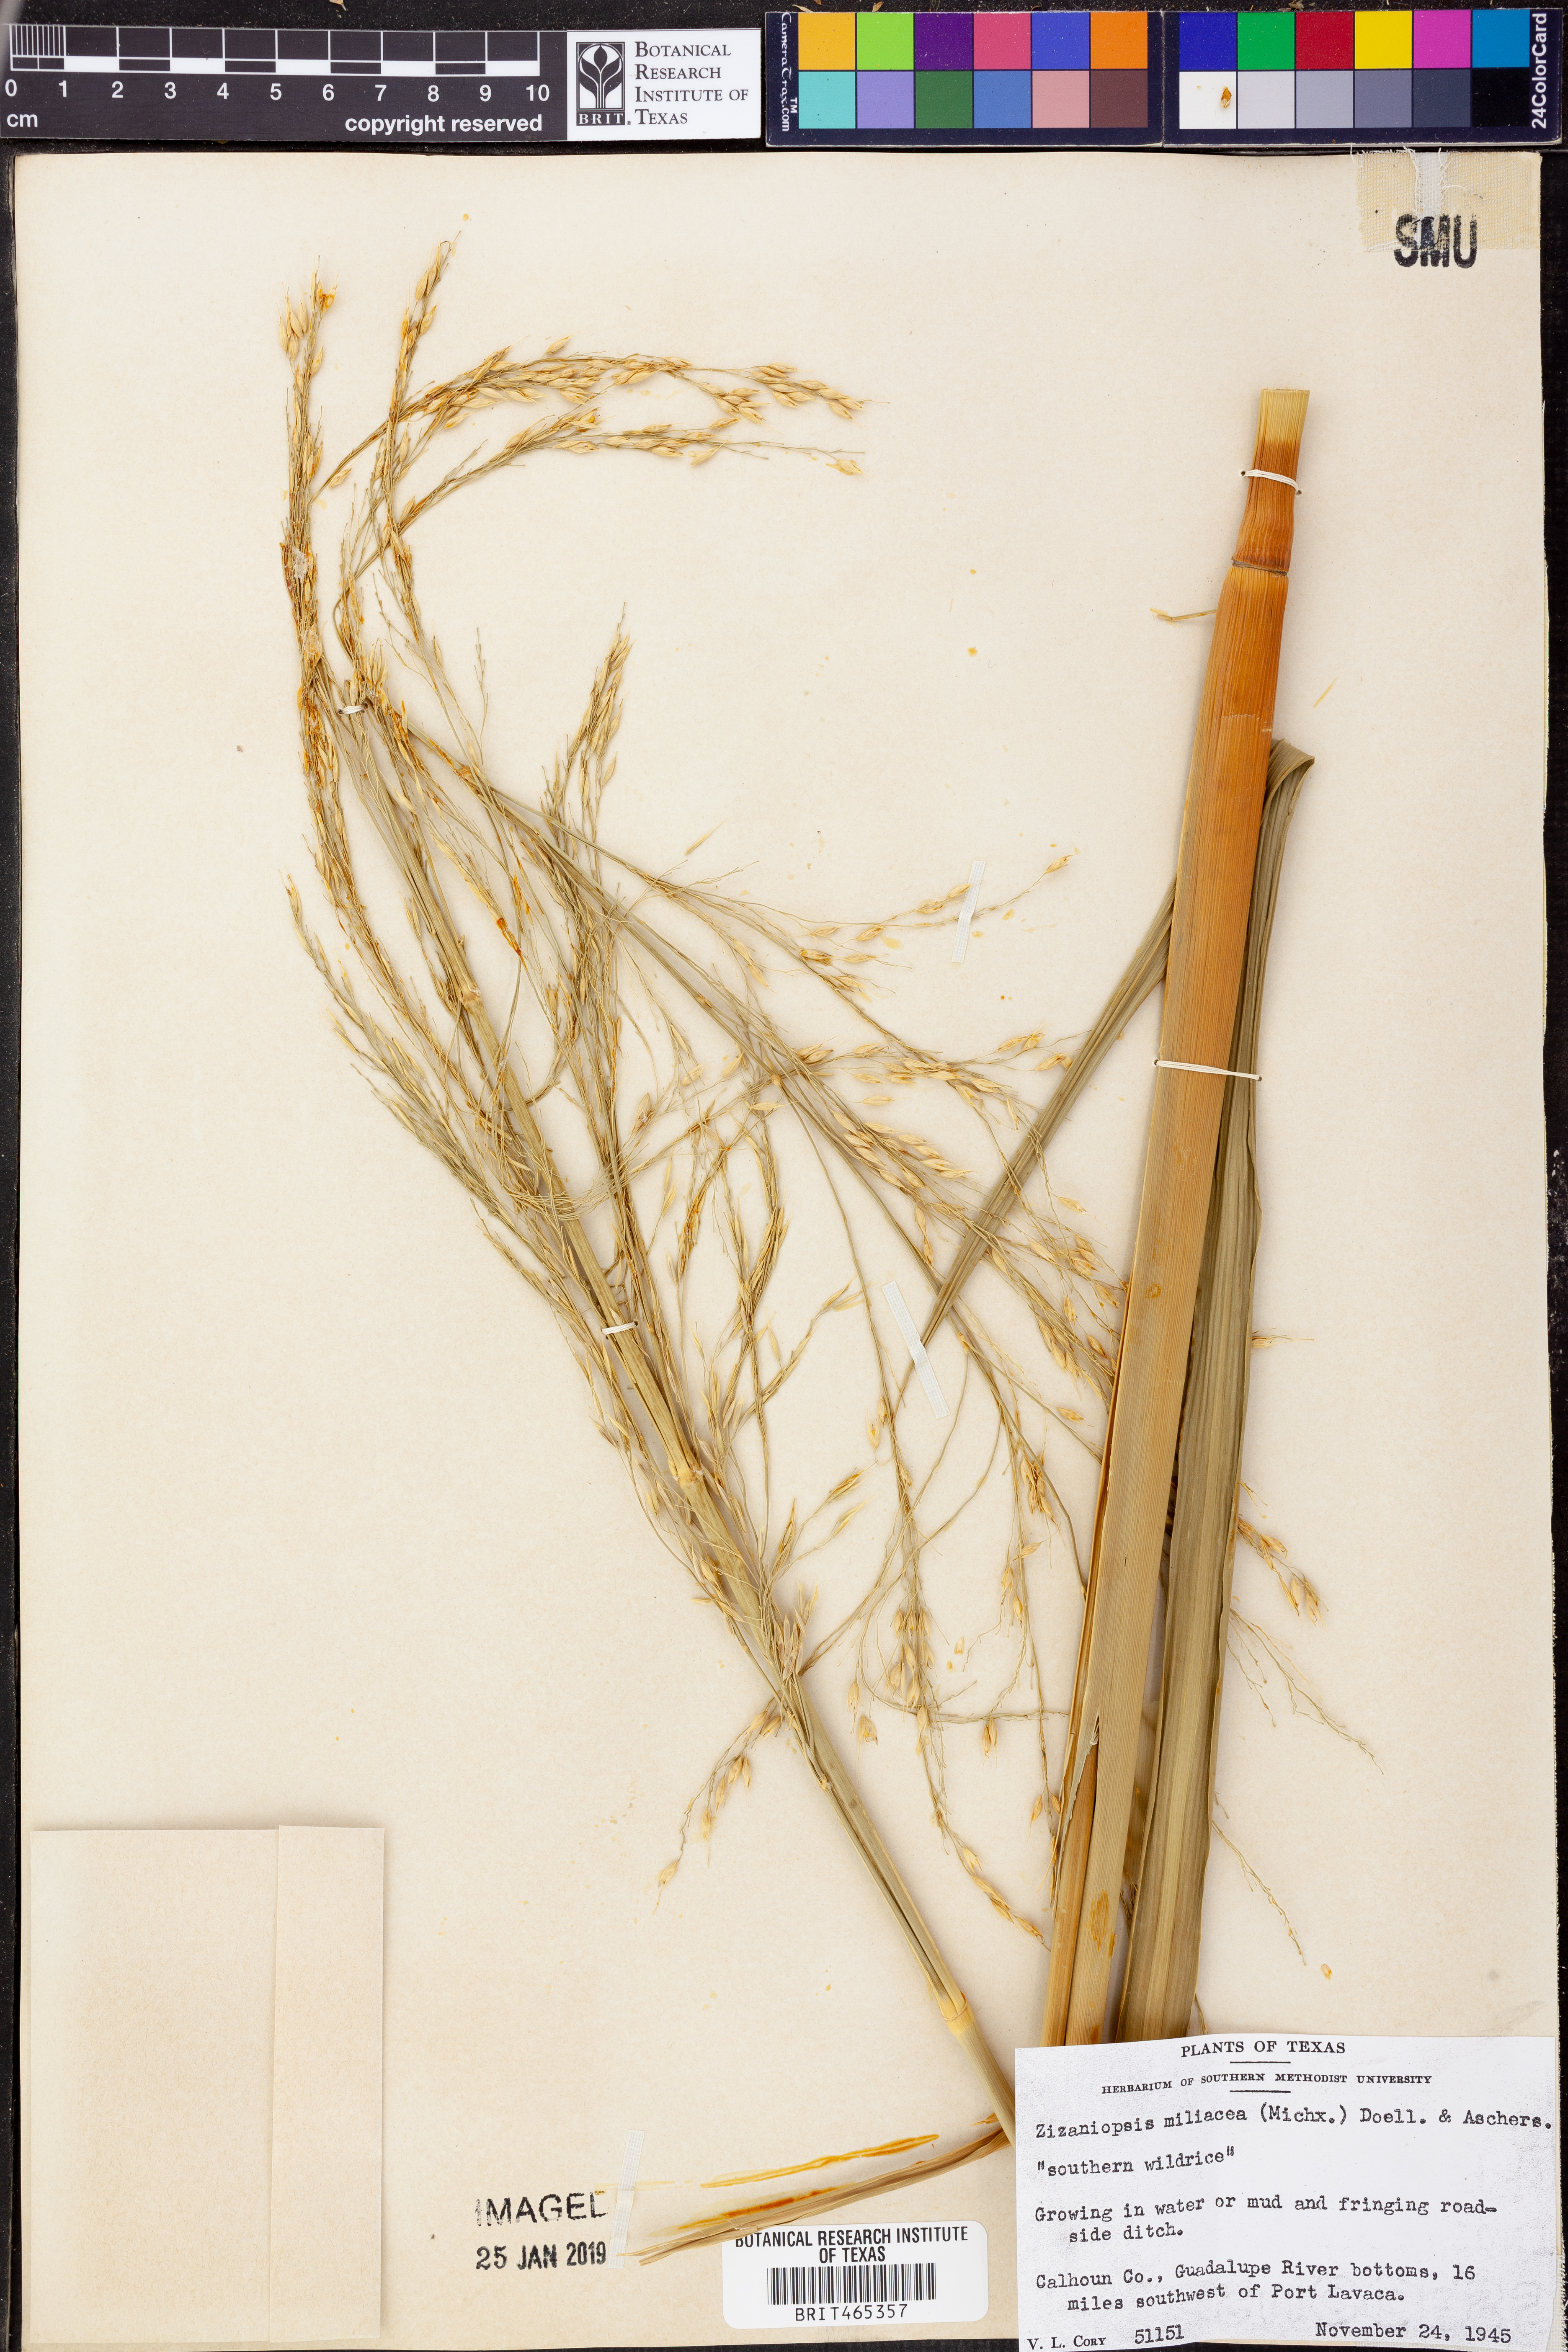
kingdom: Plantae
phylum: Tracheophyta
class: Liliopsida
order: Poales
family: Poaceae
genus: Zizaniopsis
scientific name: Zizaniopsis miliacea
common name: Giant-cutgrass
